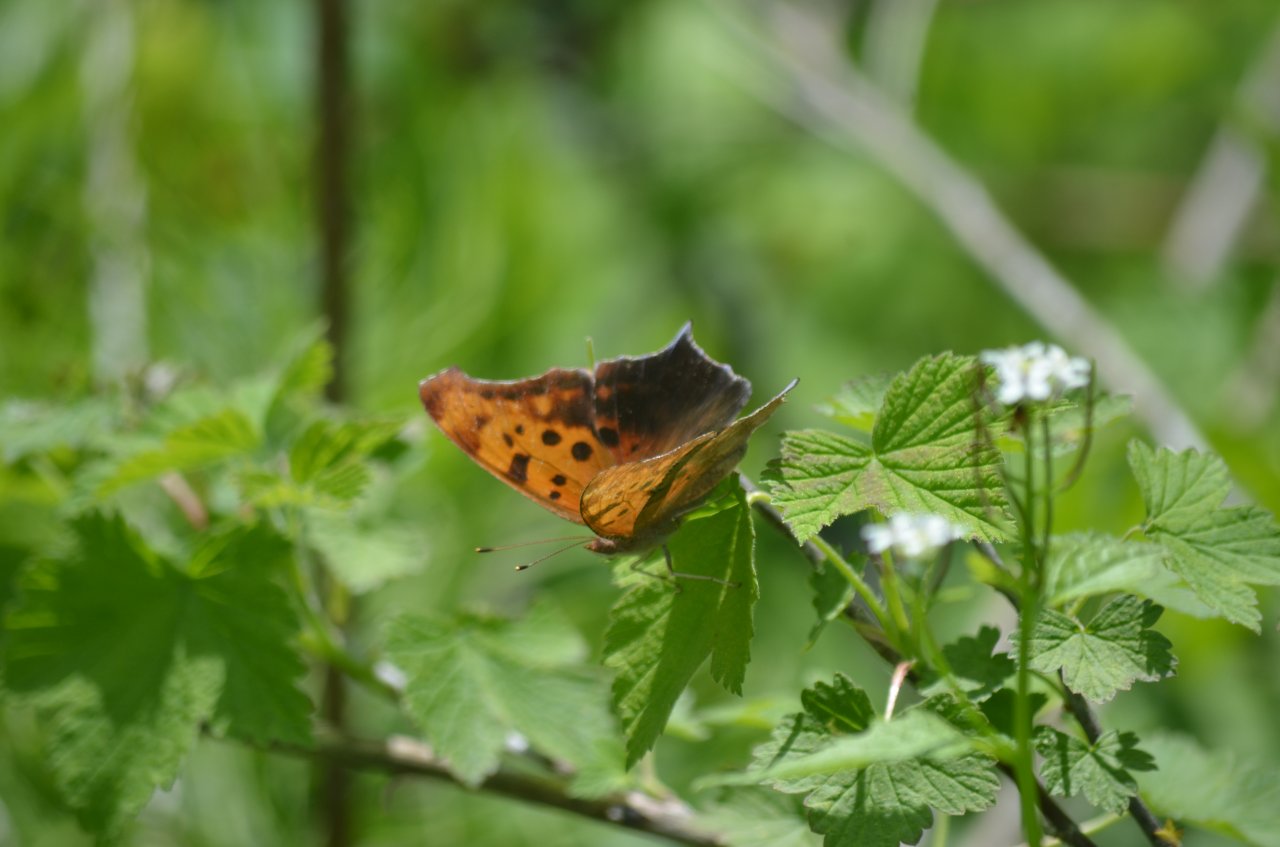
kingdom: Animalia
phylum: Arthropoda
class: Insecta
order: Lepidoptera
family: Nymphalidae
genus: Polygonia
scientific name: Polygonia interrogationis
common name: Question Mark
